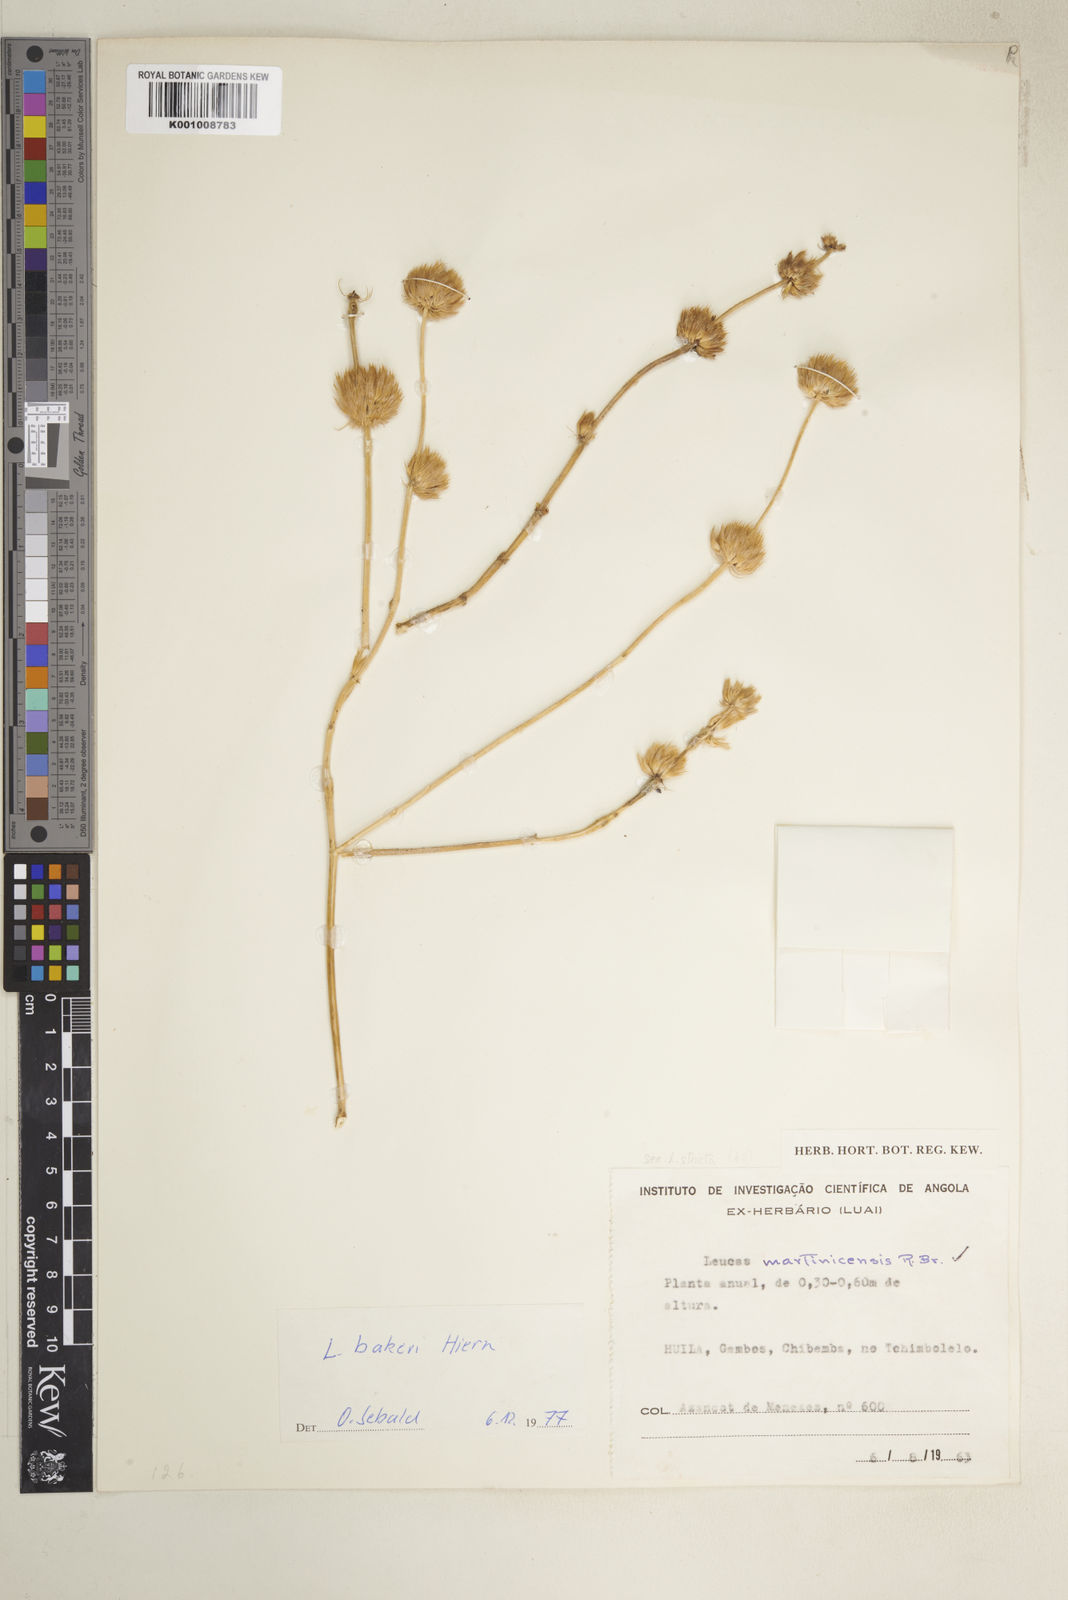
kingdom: Plantae
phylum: Tracheophyta
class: Magnoliopsida
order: Lamiales
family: Lamiaceae
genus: Leucas
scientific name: Leucas bakeri
